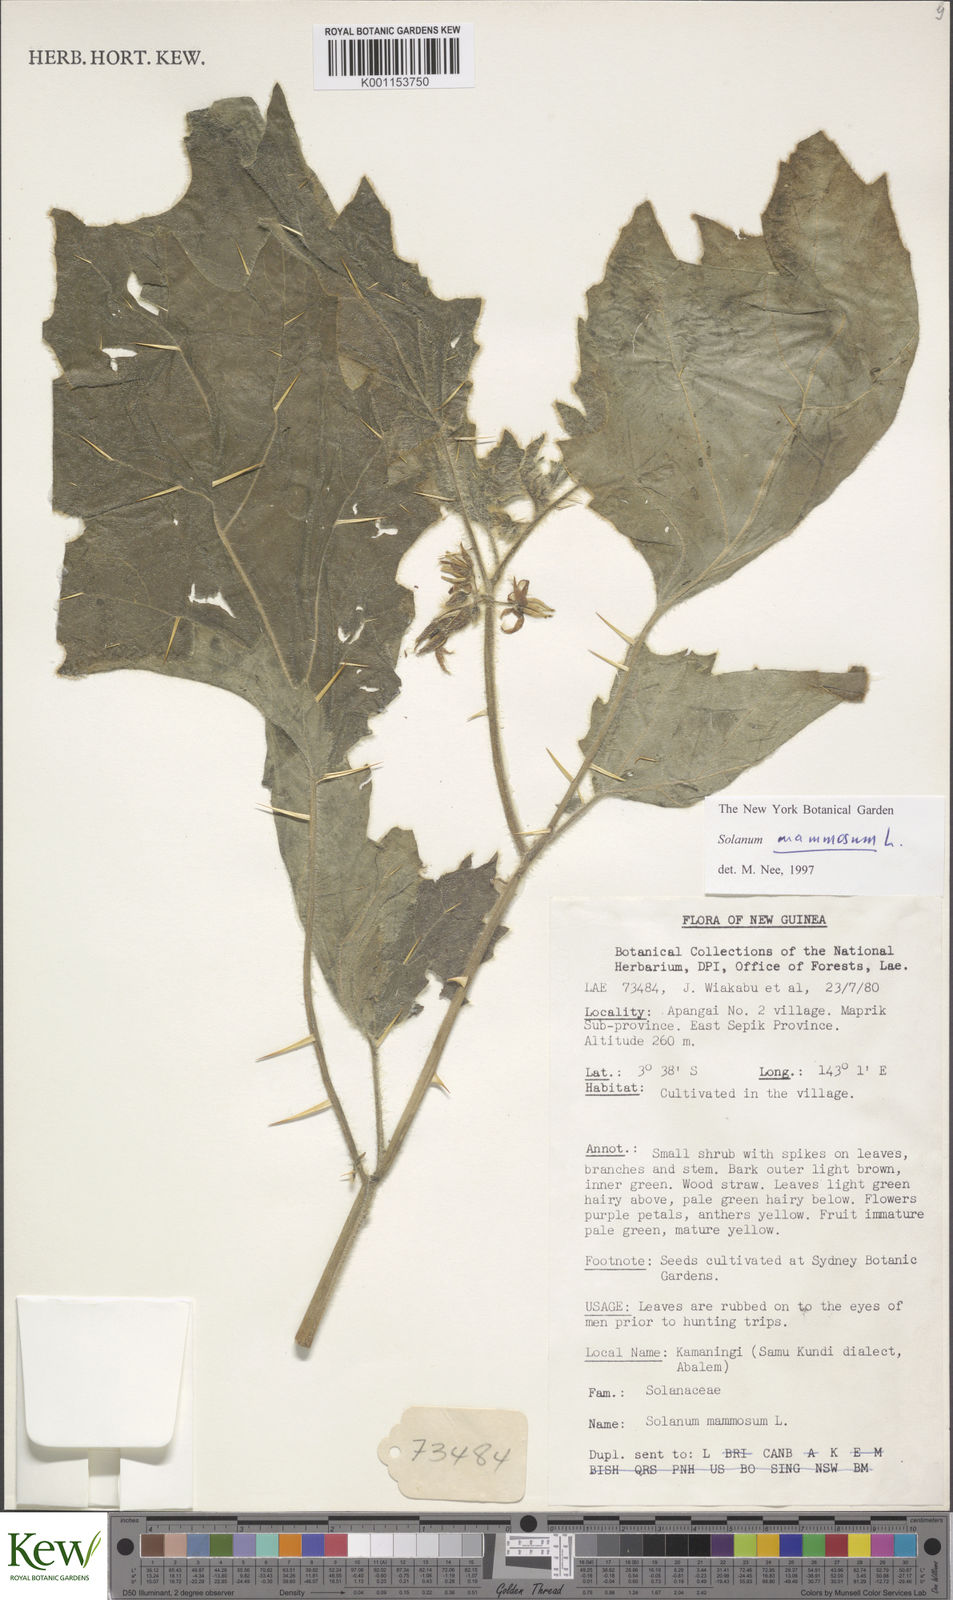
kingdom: Plantae
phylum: Tracheophyta
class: Magnoliopsida
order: Solanales
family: Solanaceae
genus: Solanum
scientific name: Solanum mammosum
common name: Nipple fruit
